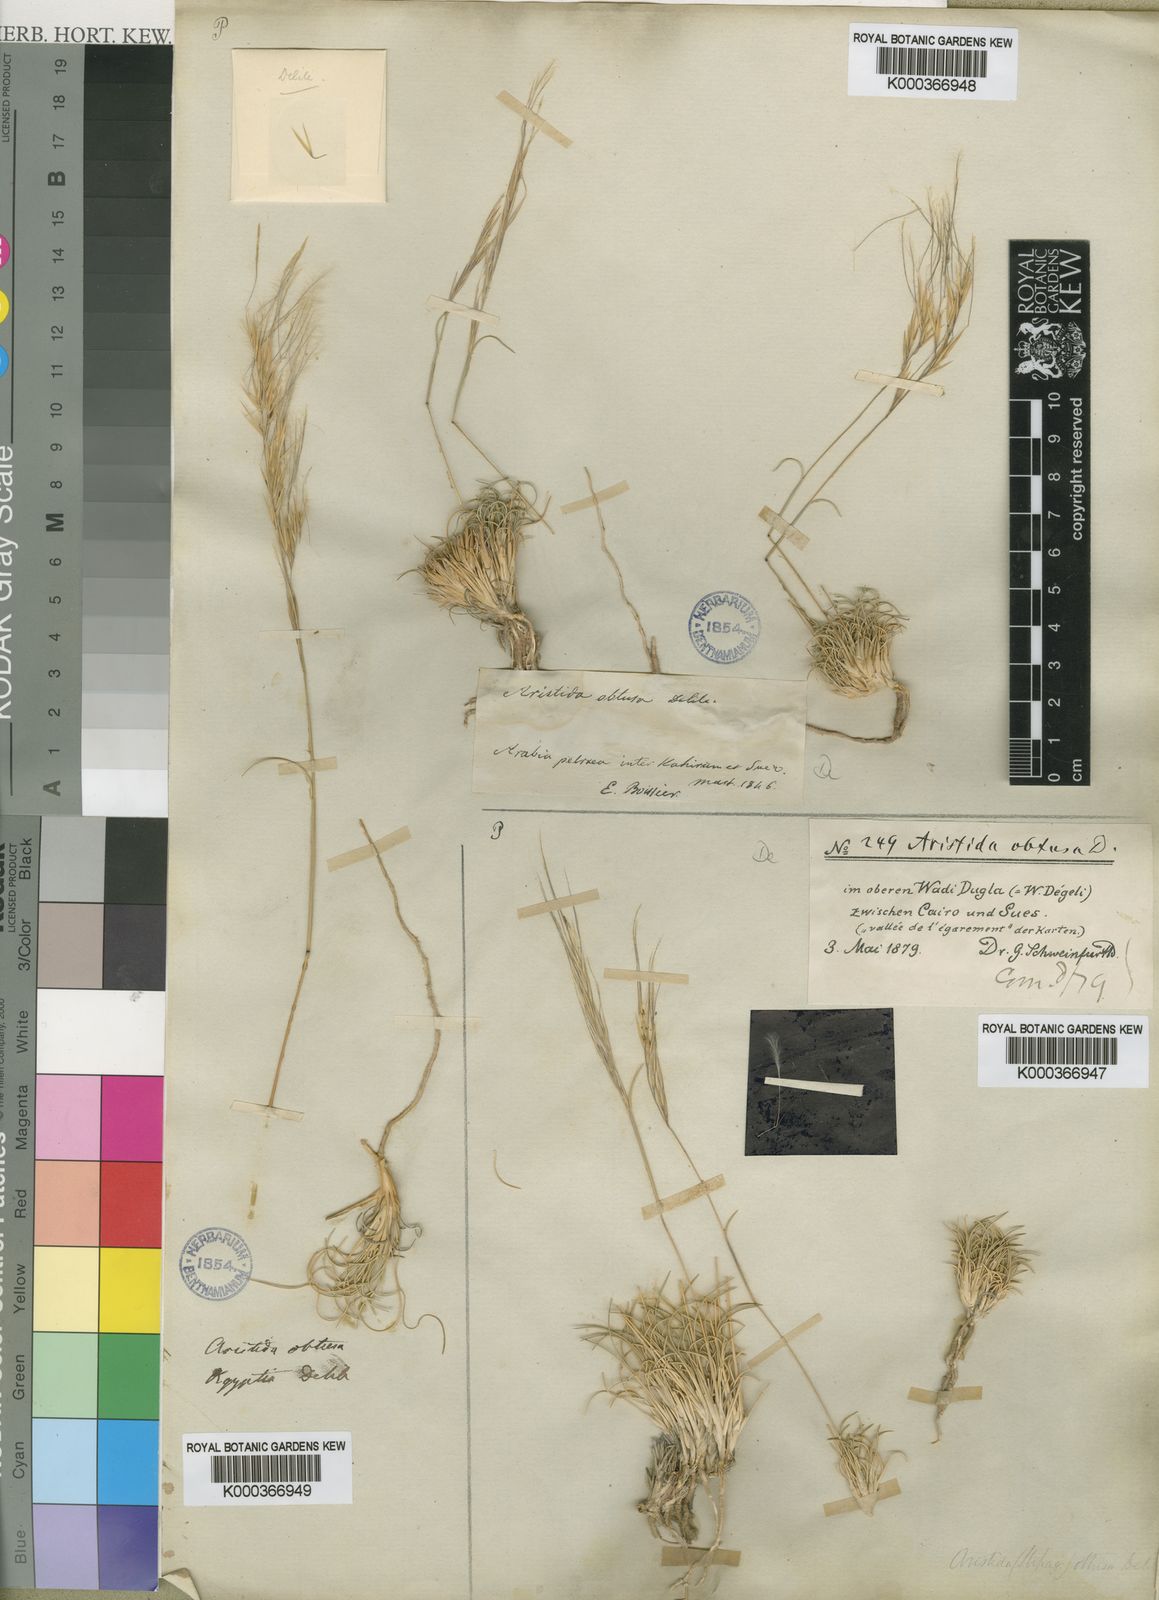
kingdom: Plantae
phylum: Tracheophyta
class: Liliopsida
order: Poales
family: Poaceae
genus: Stipagrostis
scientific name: Stipagrostis obtusa
